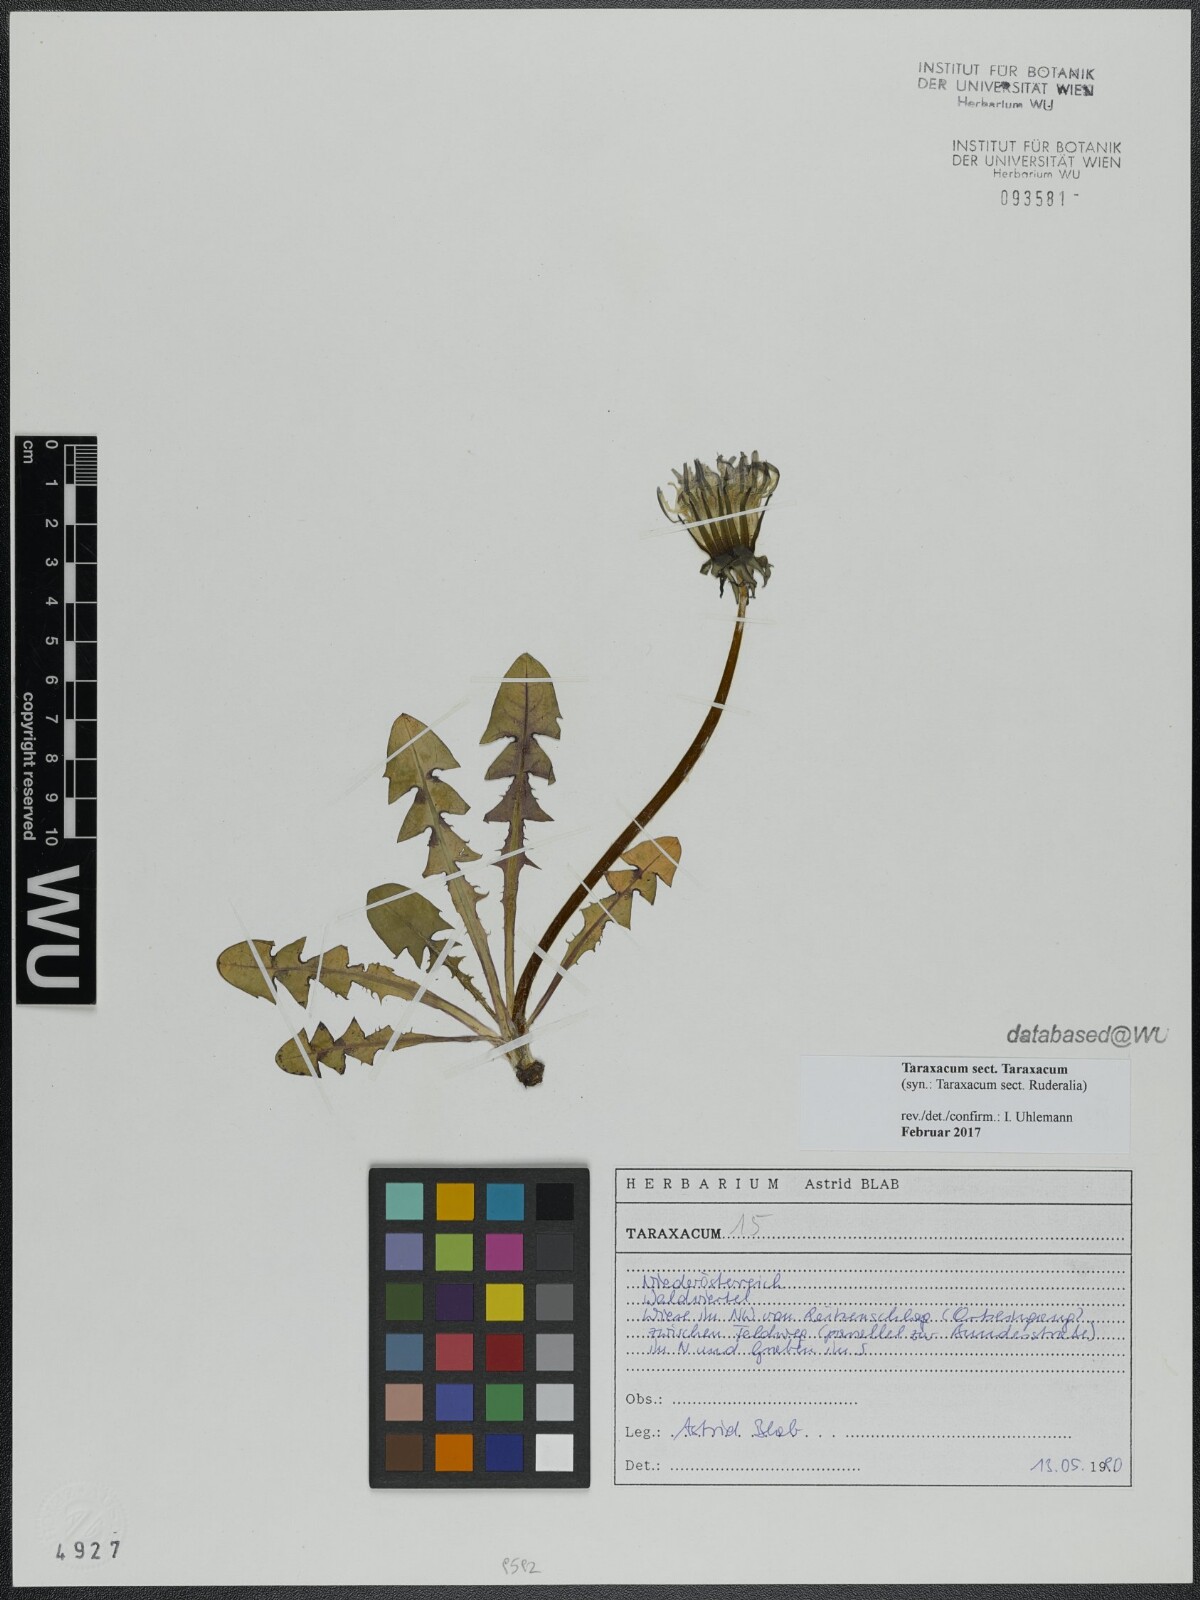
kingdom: Plantae
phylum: Tracheophyta
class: Magnoliopsida
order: Asterales
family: Asteraceae
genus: Taraxacum
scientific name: Taraxacum
